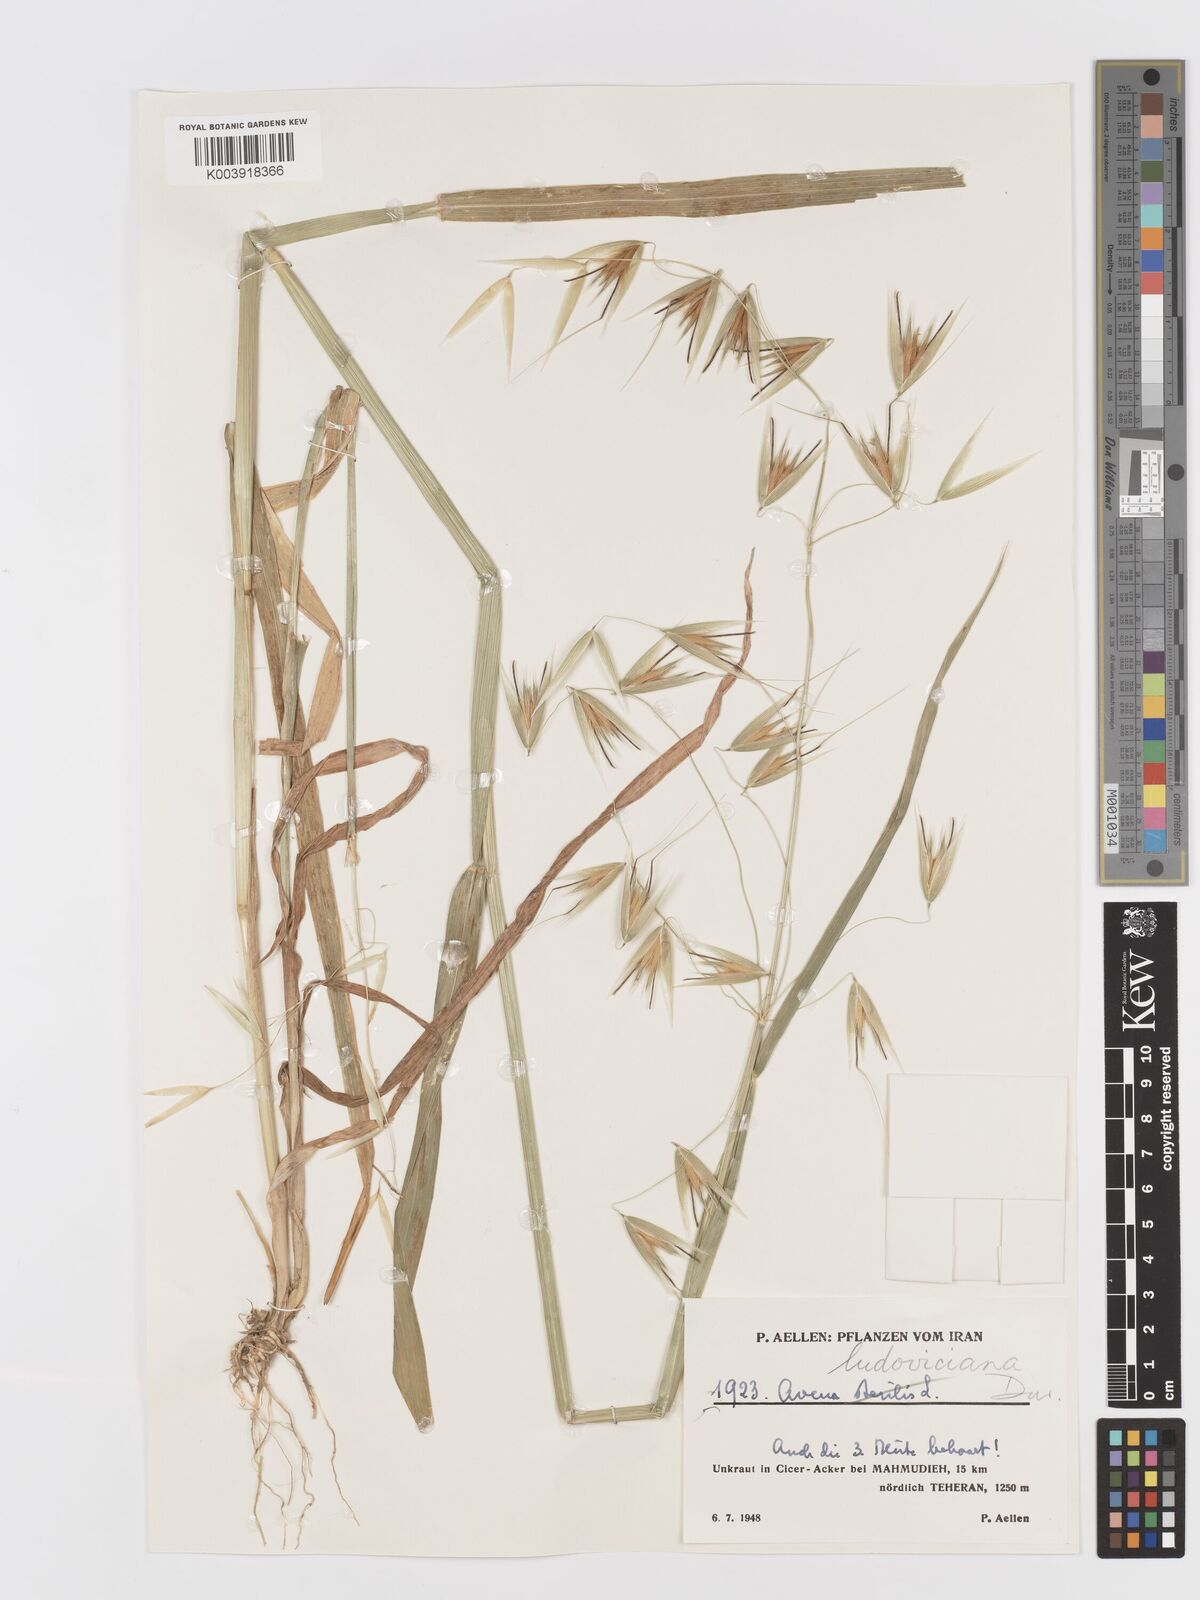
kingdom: Plantae
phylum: Tracheophyta
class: Liliopsida
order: Poales
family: Poaceae
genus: Avena
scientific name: Avena sterilis
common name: Animated oat
